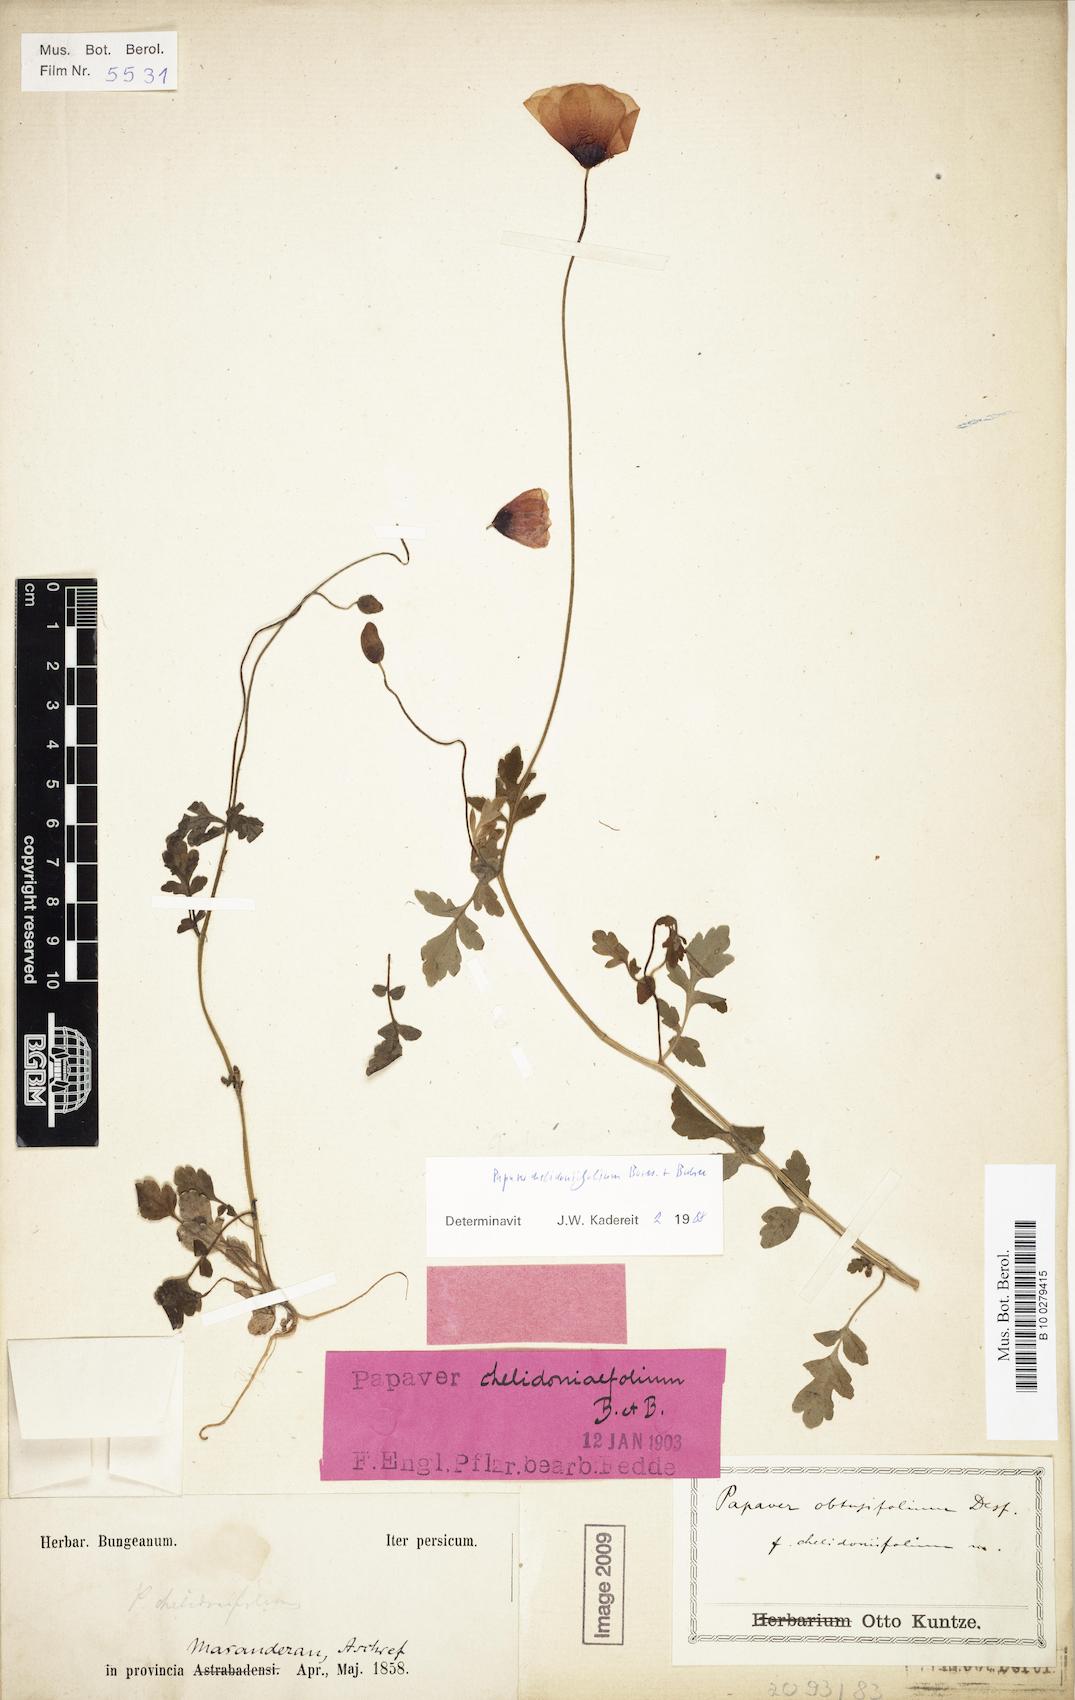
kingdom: Plantae
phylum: Tracheophyta
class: Magnoliopsida
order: Ranunculales
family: Papaveraceae
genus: Papaver
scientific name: Papaver chelidoniifolium
